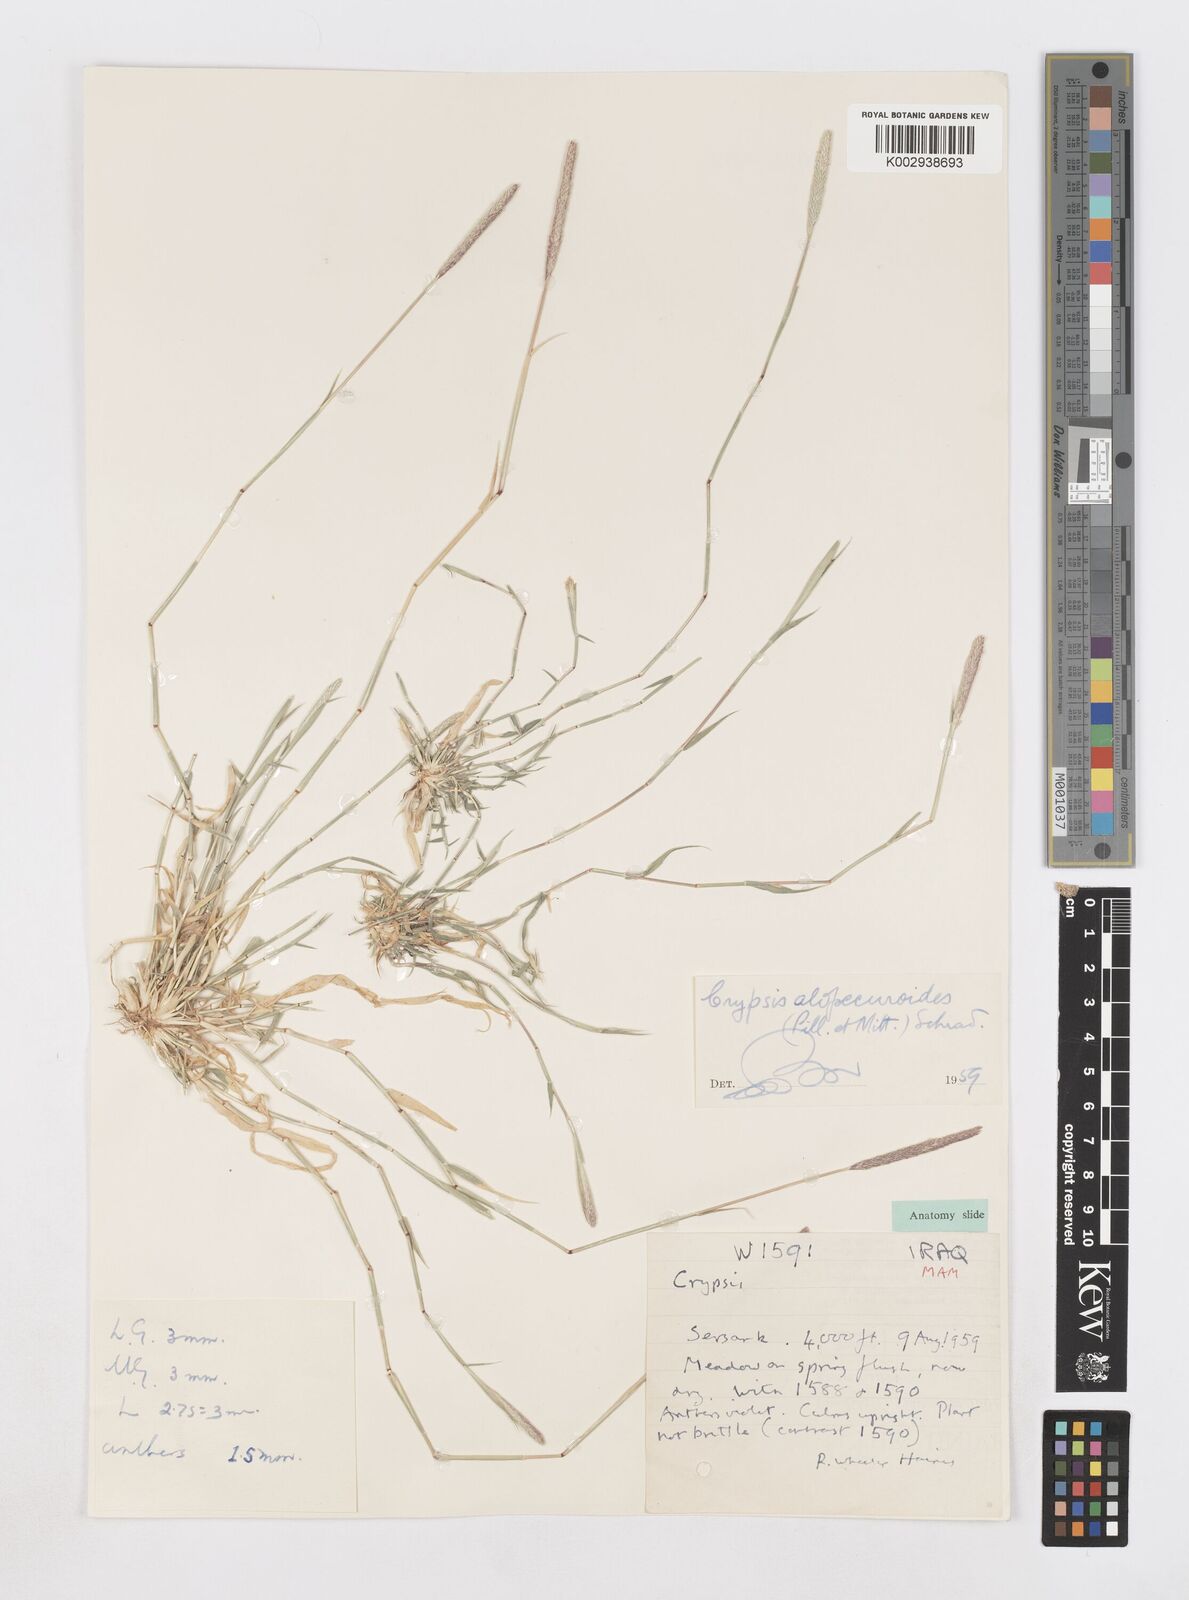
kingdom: Plantae
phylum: Tracheophyta
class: Liliopsida
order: Poales
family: Poaceae
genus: Sporobolus
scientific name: Sporobolus alopecuroides
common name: Foxtail pricklegrass
